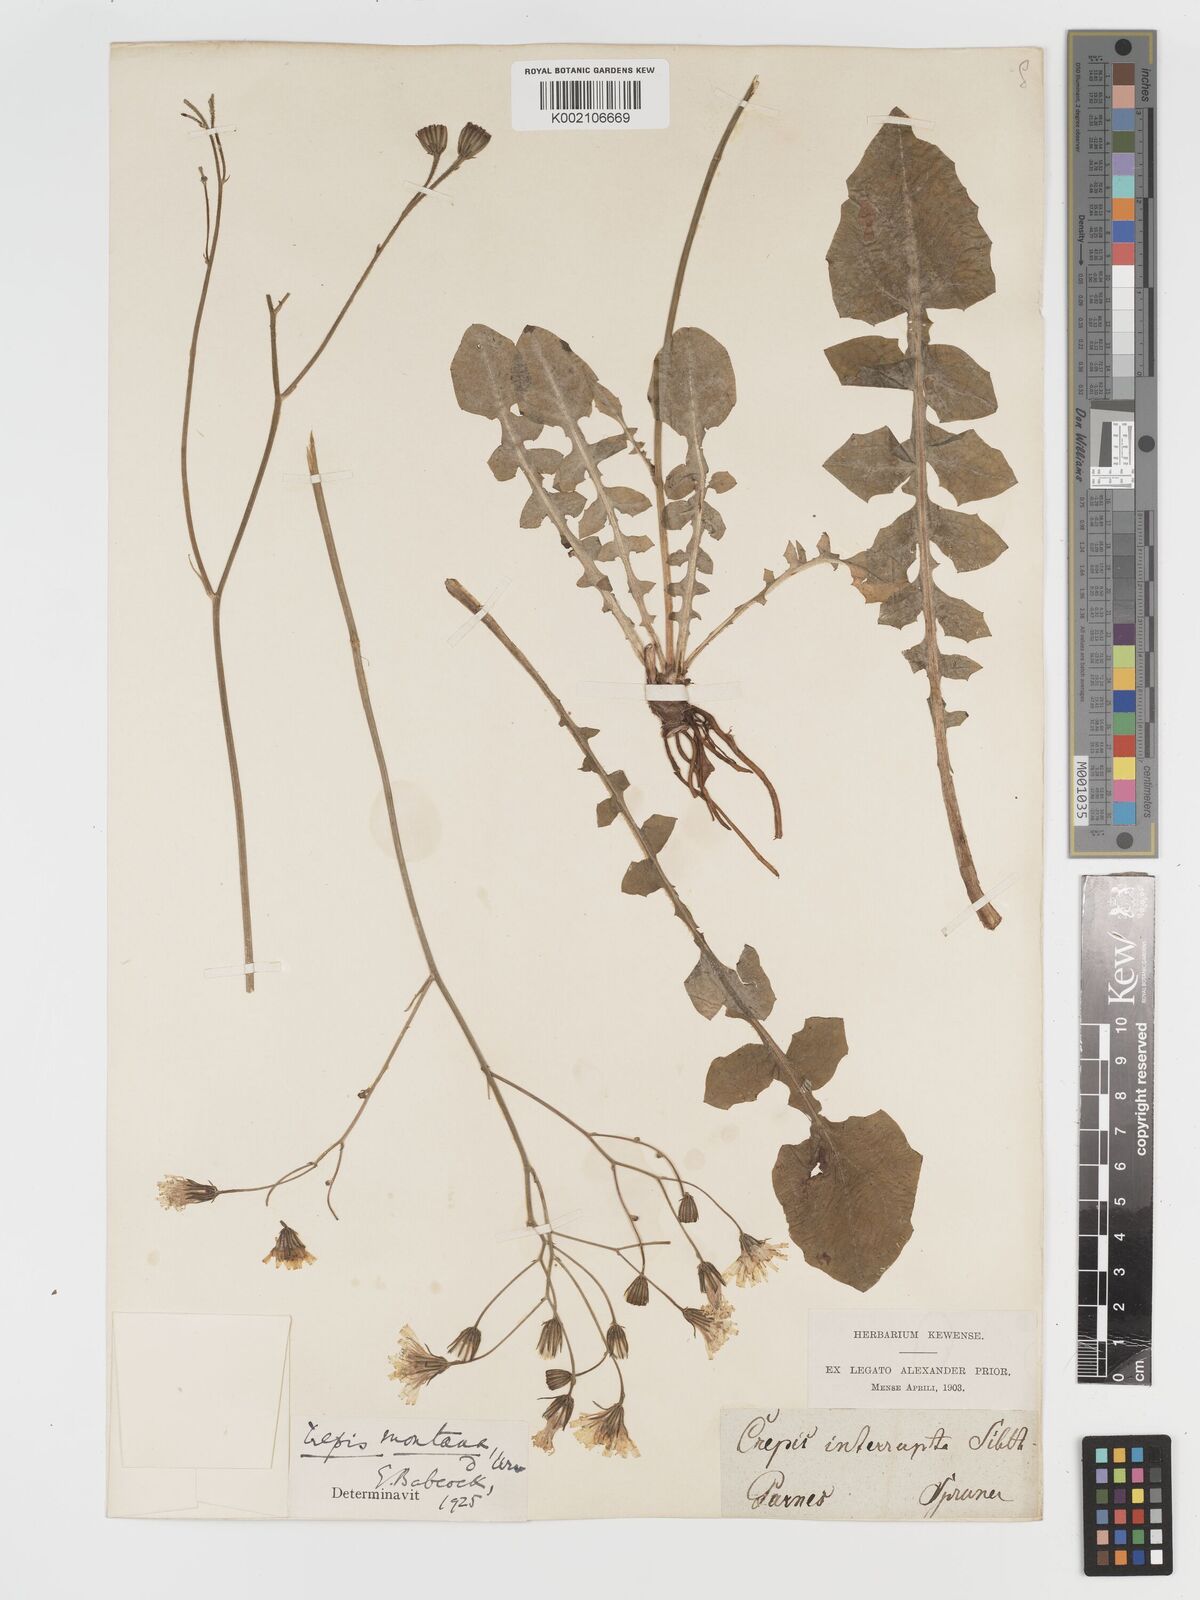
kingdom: Plantae
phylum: Tracheophyta
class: Magnoliopsida
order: Asterales
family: Asteraceae
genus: Crepis
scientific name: Crepis
